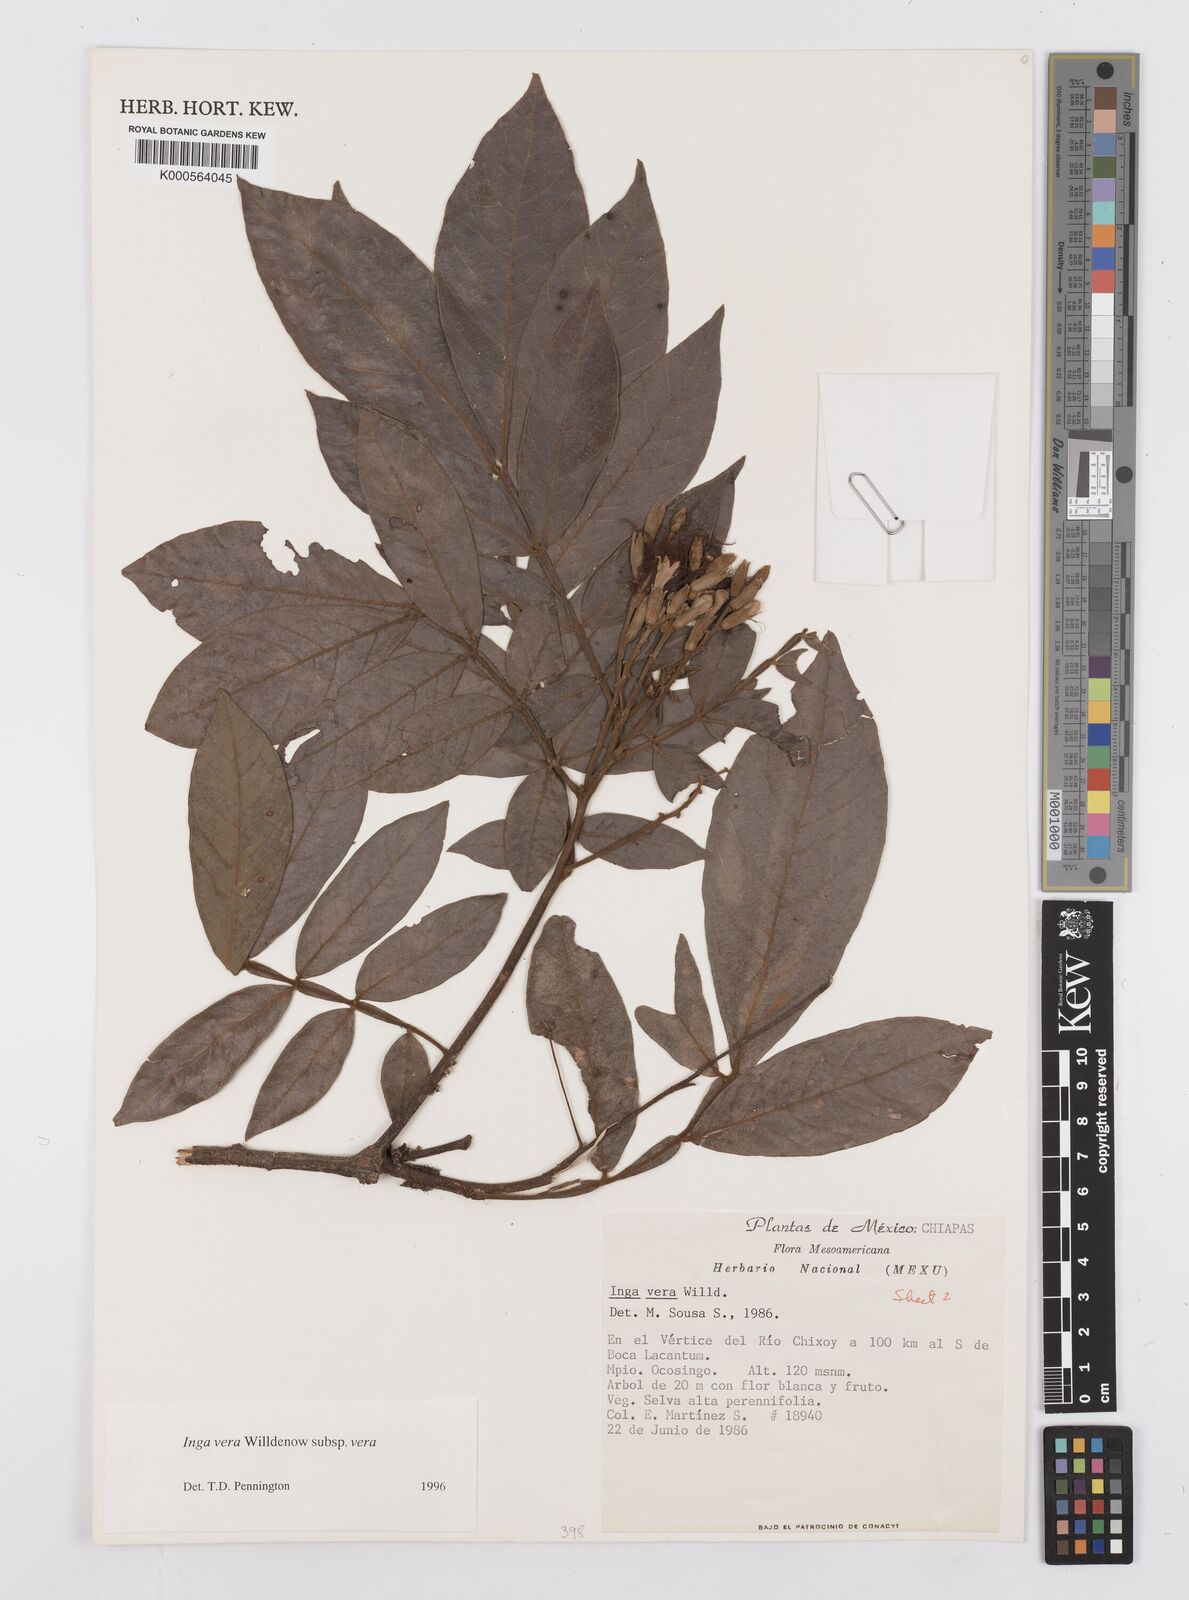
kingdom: Plantae
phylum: Tracheophyta
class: Magnoliopsida
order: Fabales
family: Fabaceae
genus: Inga
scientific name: Inga vera
